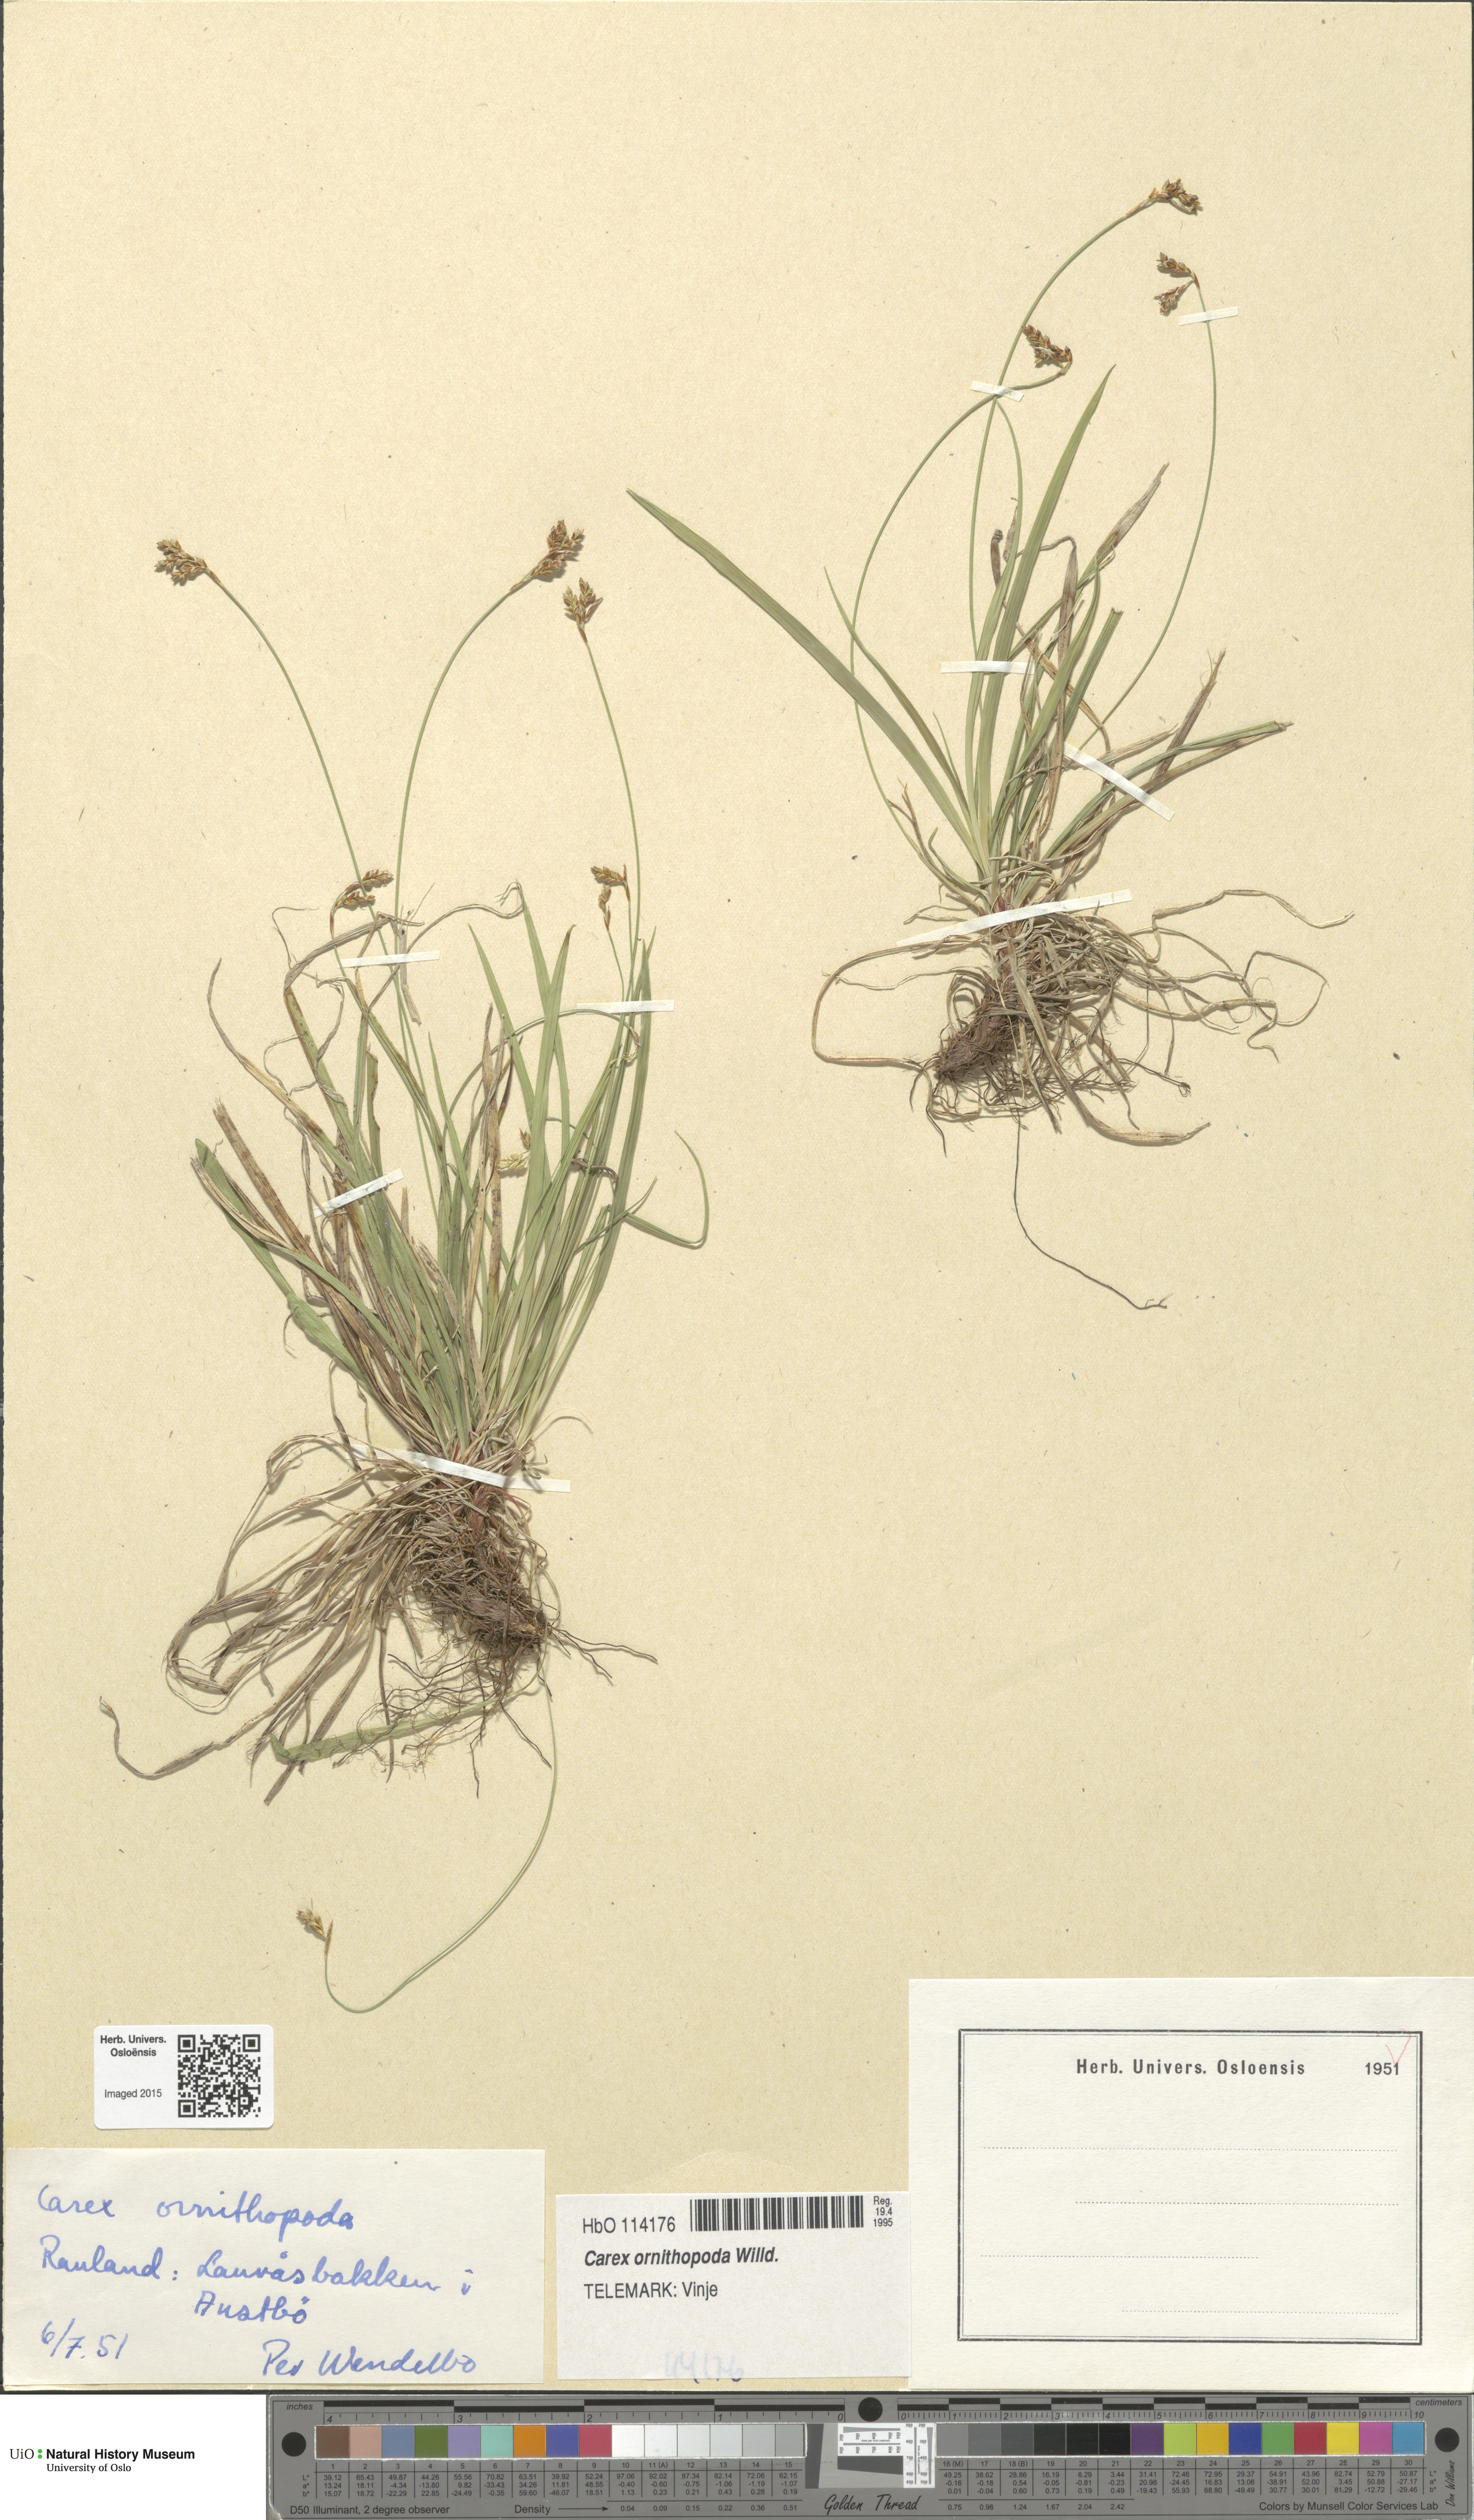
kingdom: Plantae
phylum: Tracheophyta
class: Liliopsida
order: Poales
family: Cyperaceae
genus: Carex
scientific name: Carex ornithopoda
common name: Bird's-foot sedge
